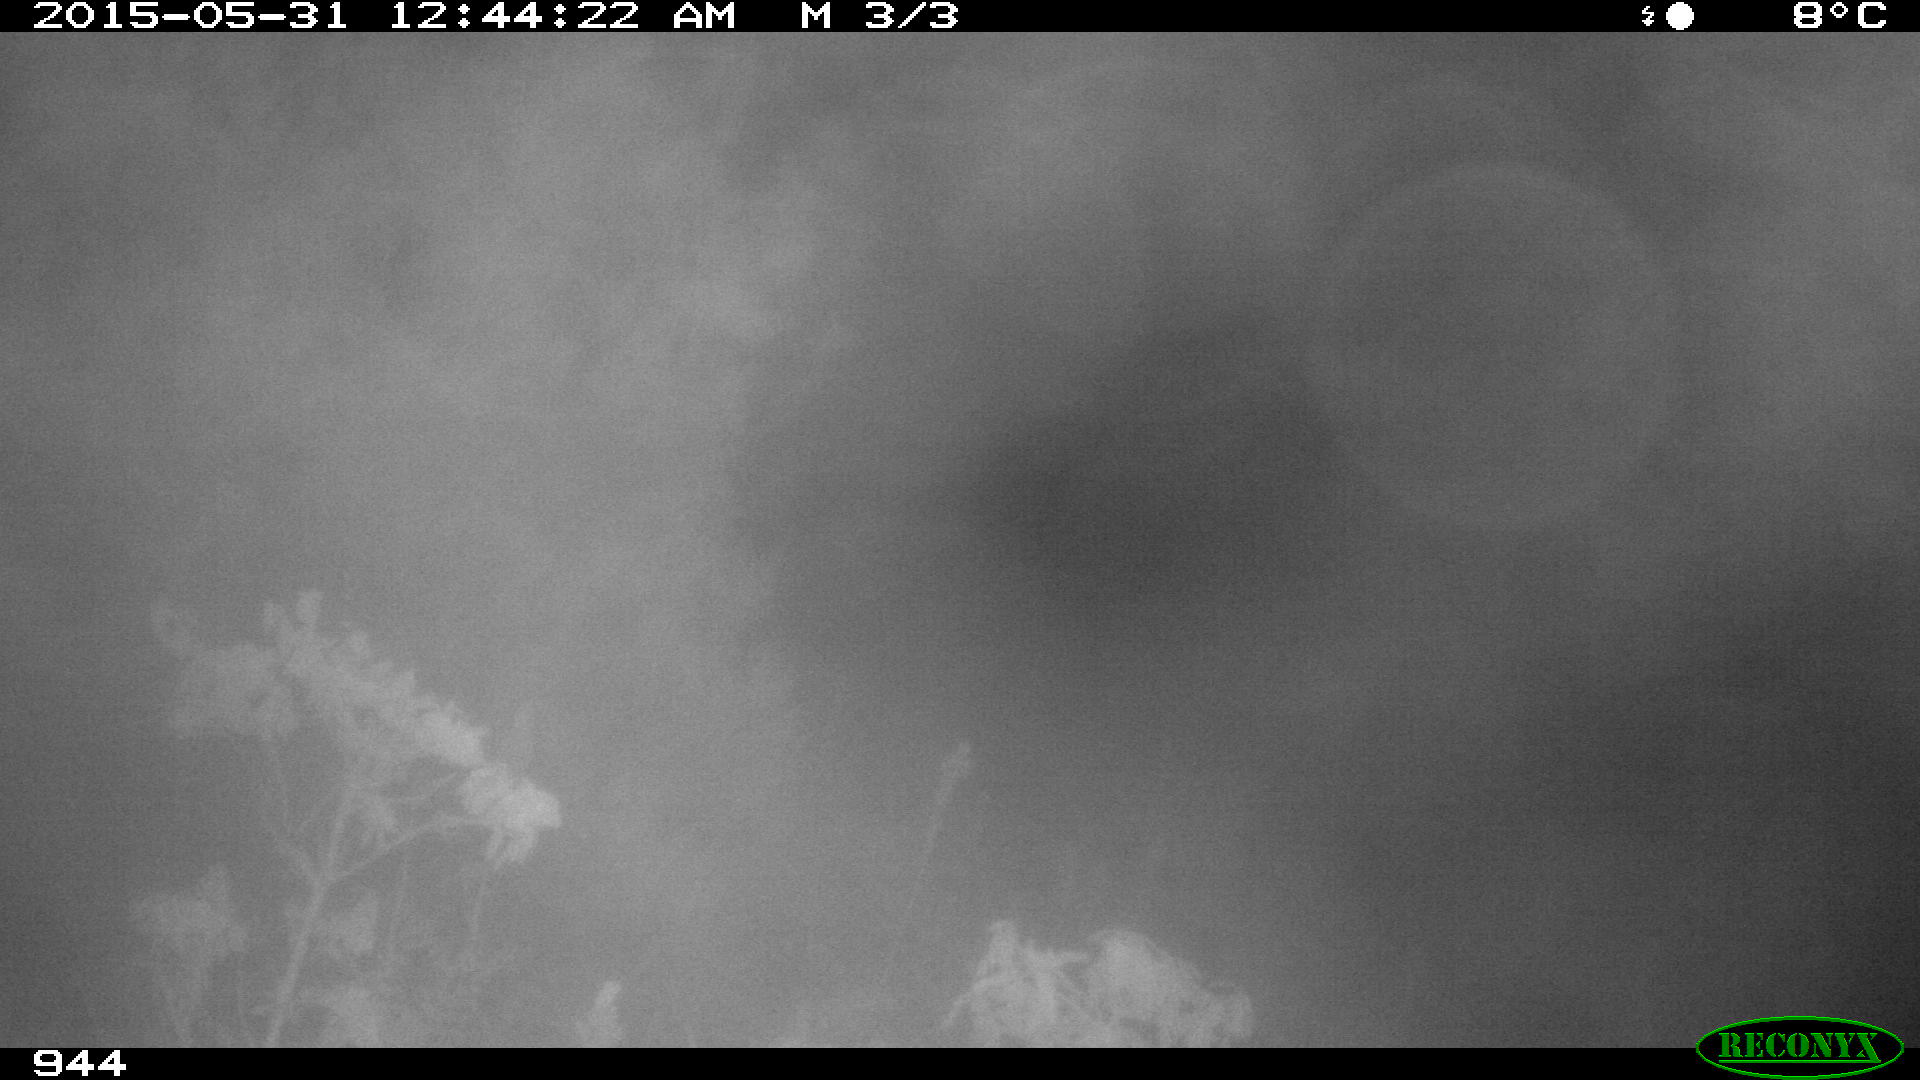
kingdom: Animalia
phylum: Chordata
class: Mammalia
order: Artiodactyla
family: Bovidae
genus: Bos
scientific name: Bos taurus
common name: Domesticated cattle
